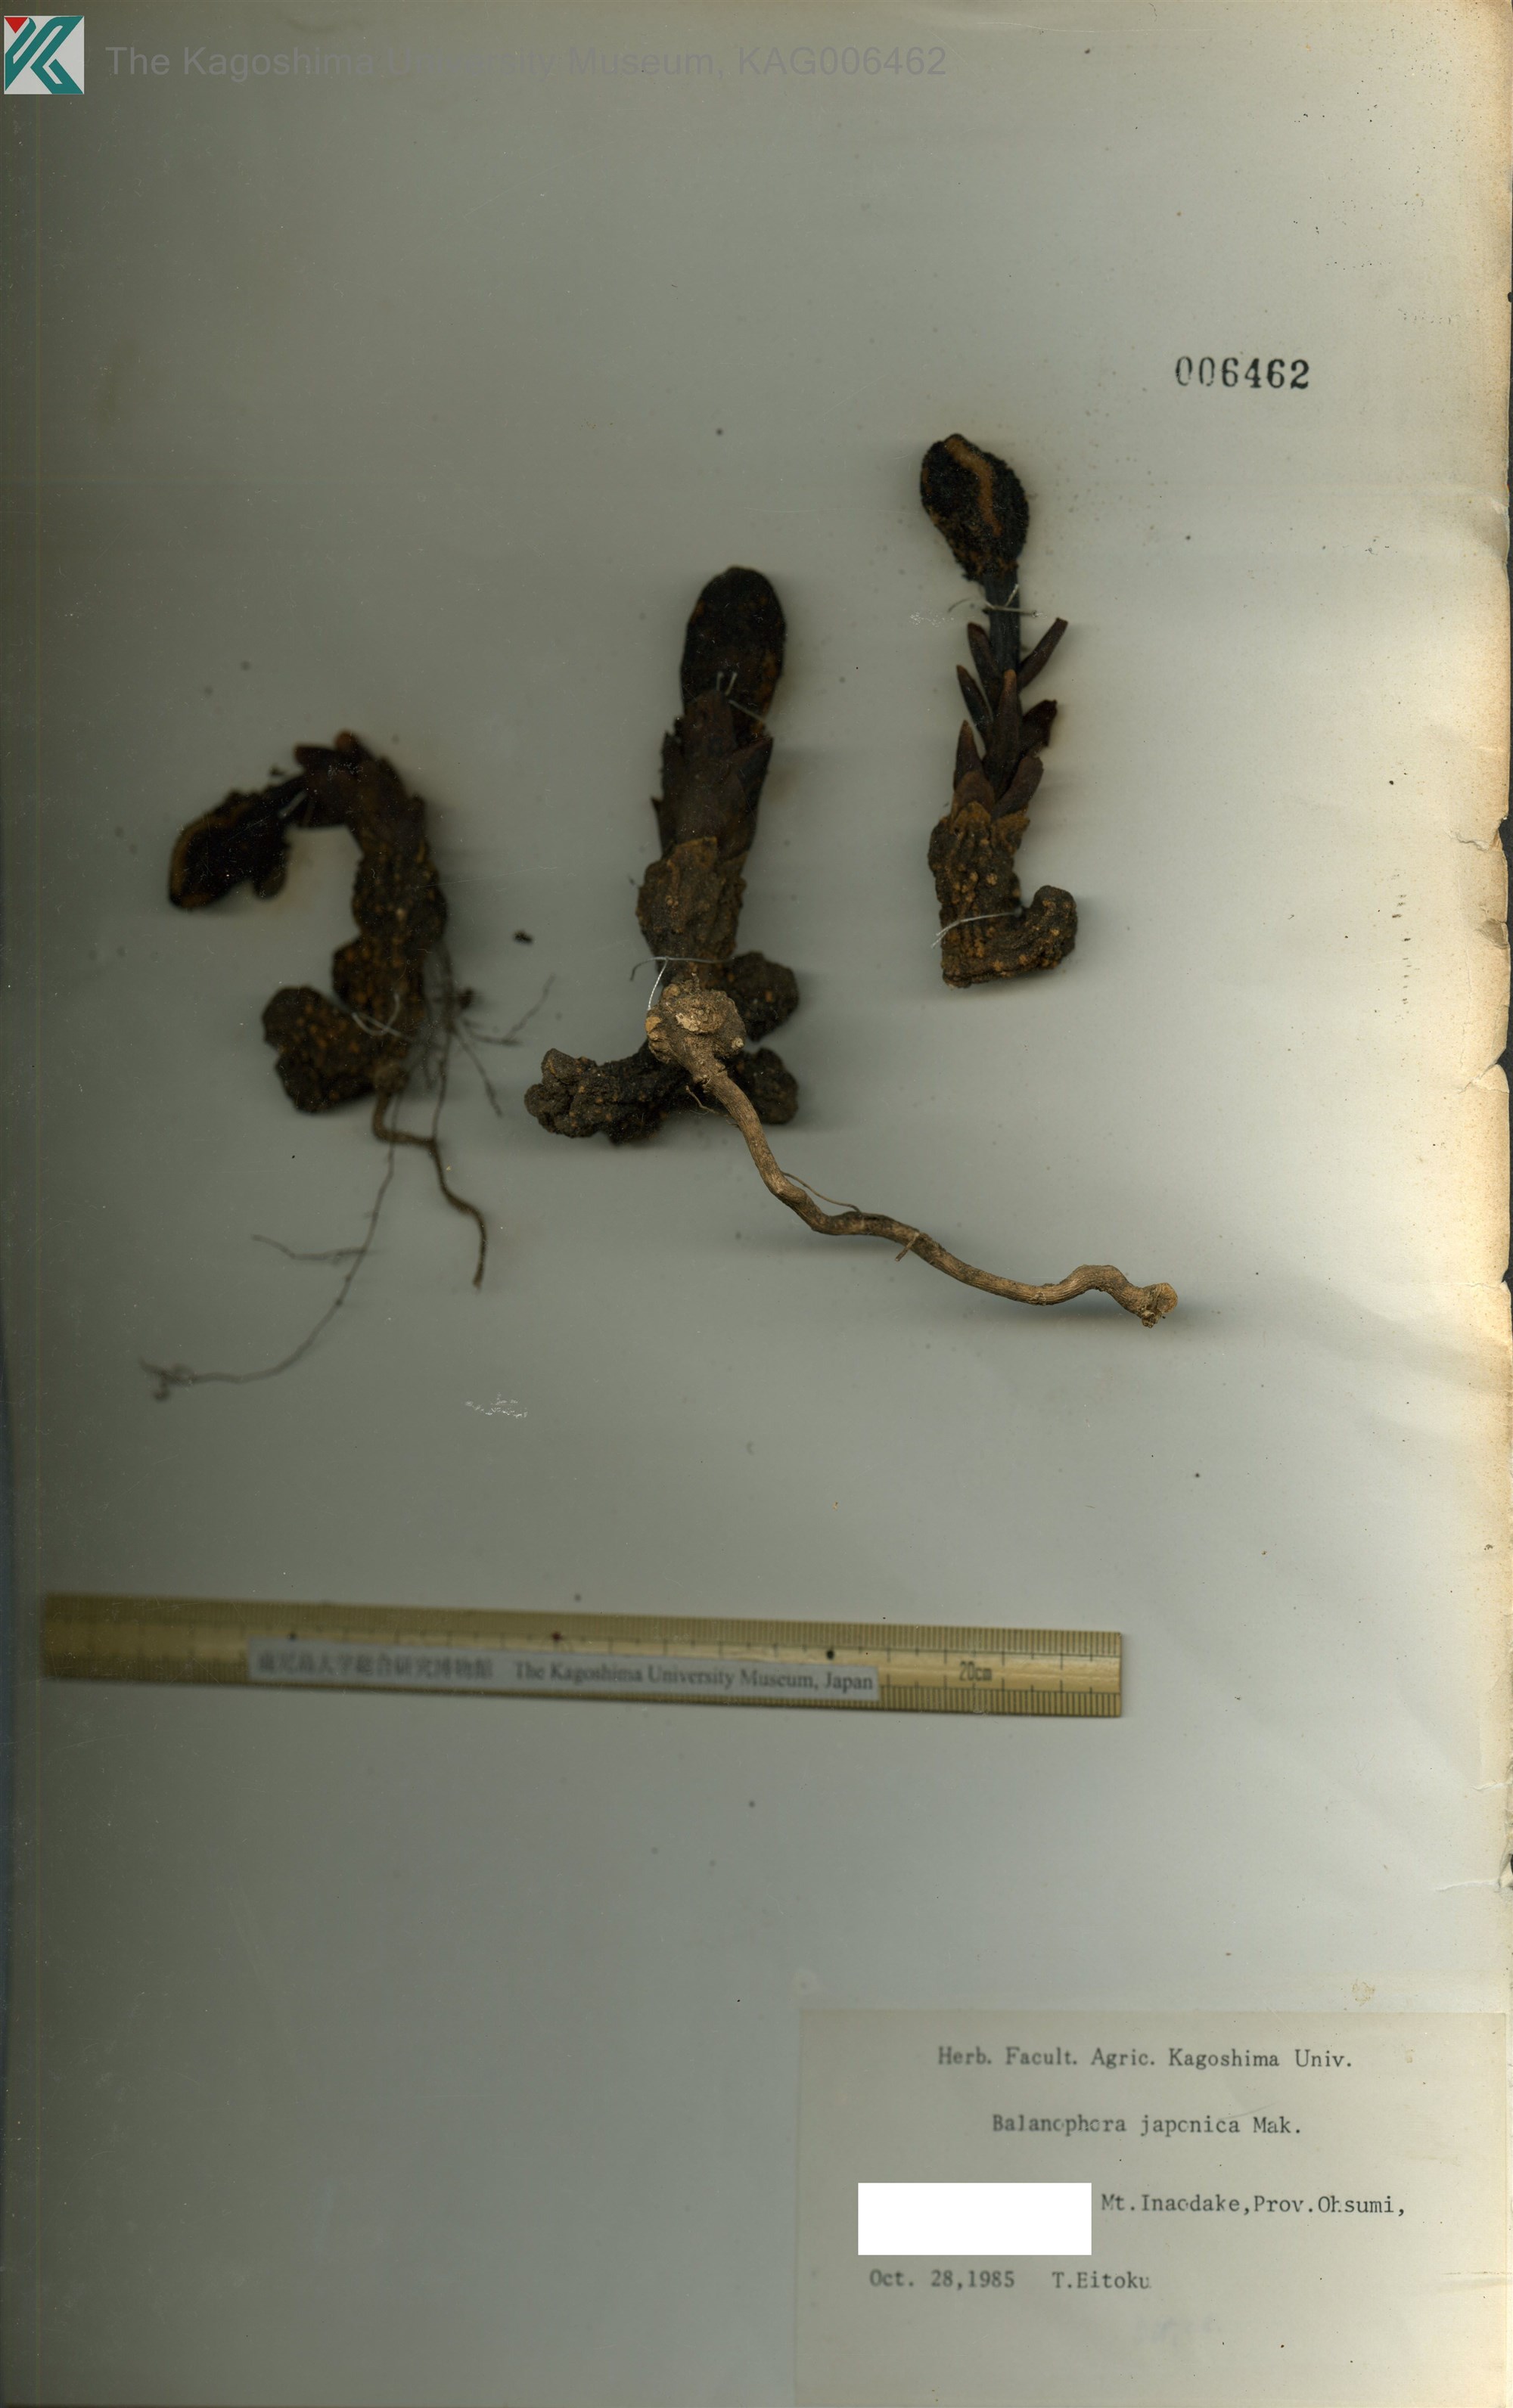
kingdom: Plantae
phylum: Tracheophyta
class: Magnoliopsida
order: Santalales
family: Balanophoraceae
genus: Balanophora
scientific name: Balanophora japonica
